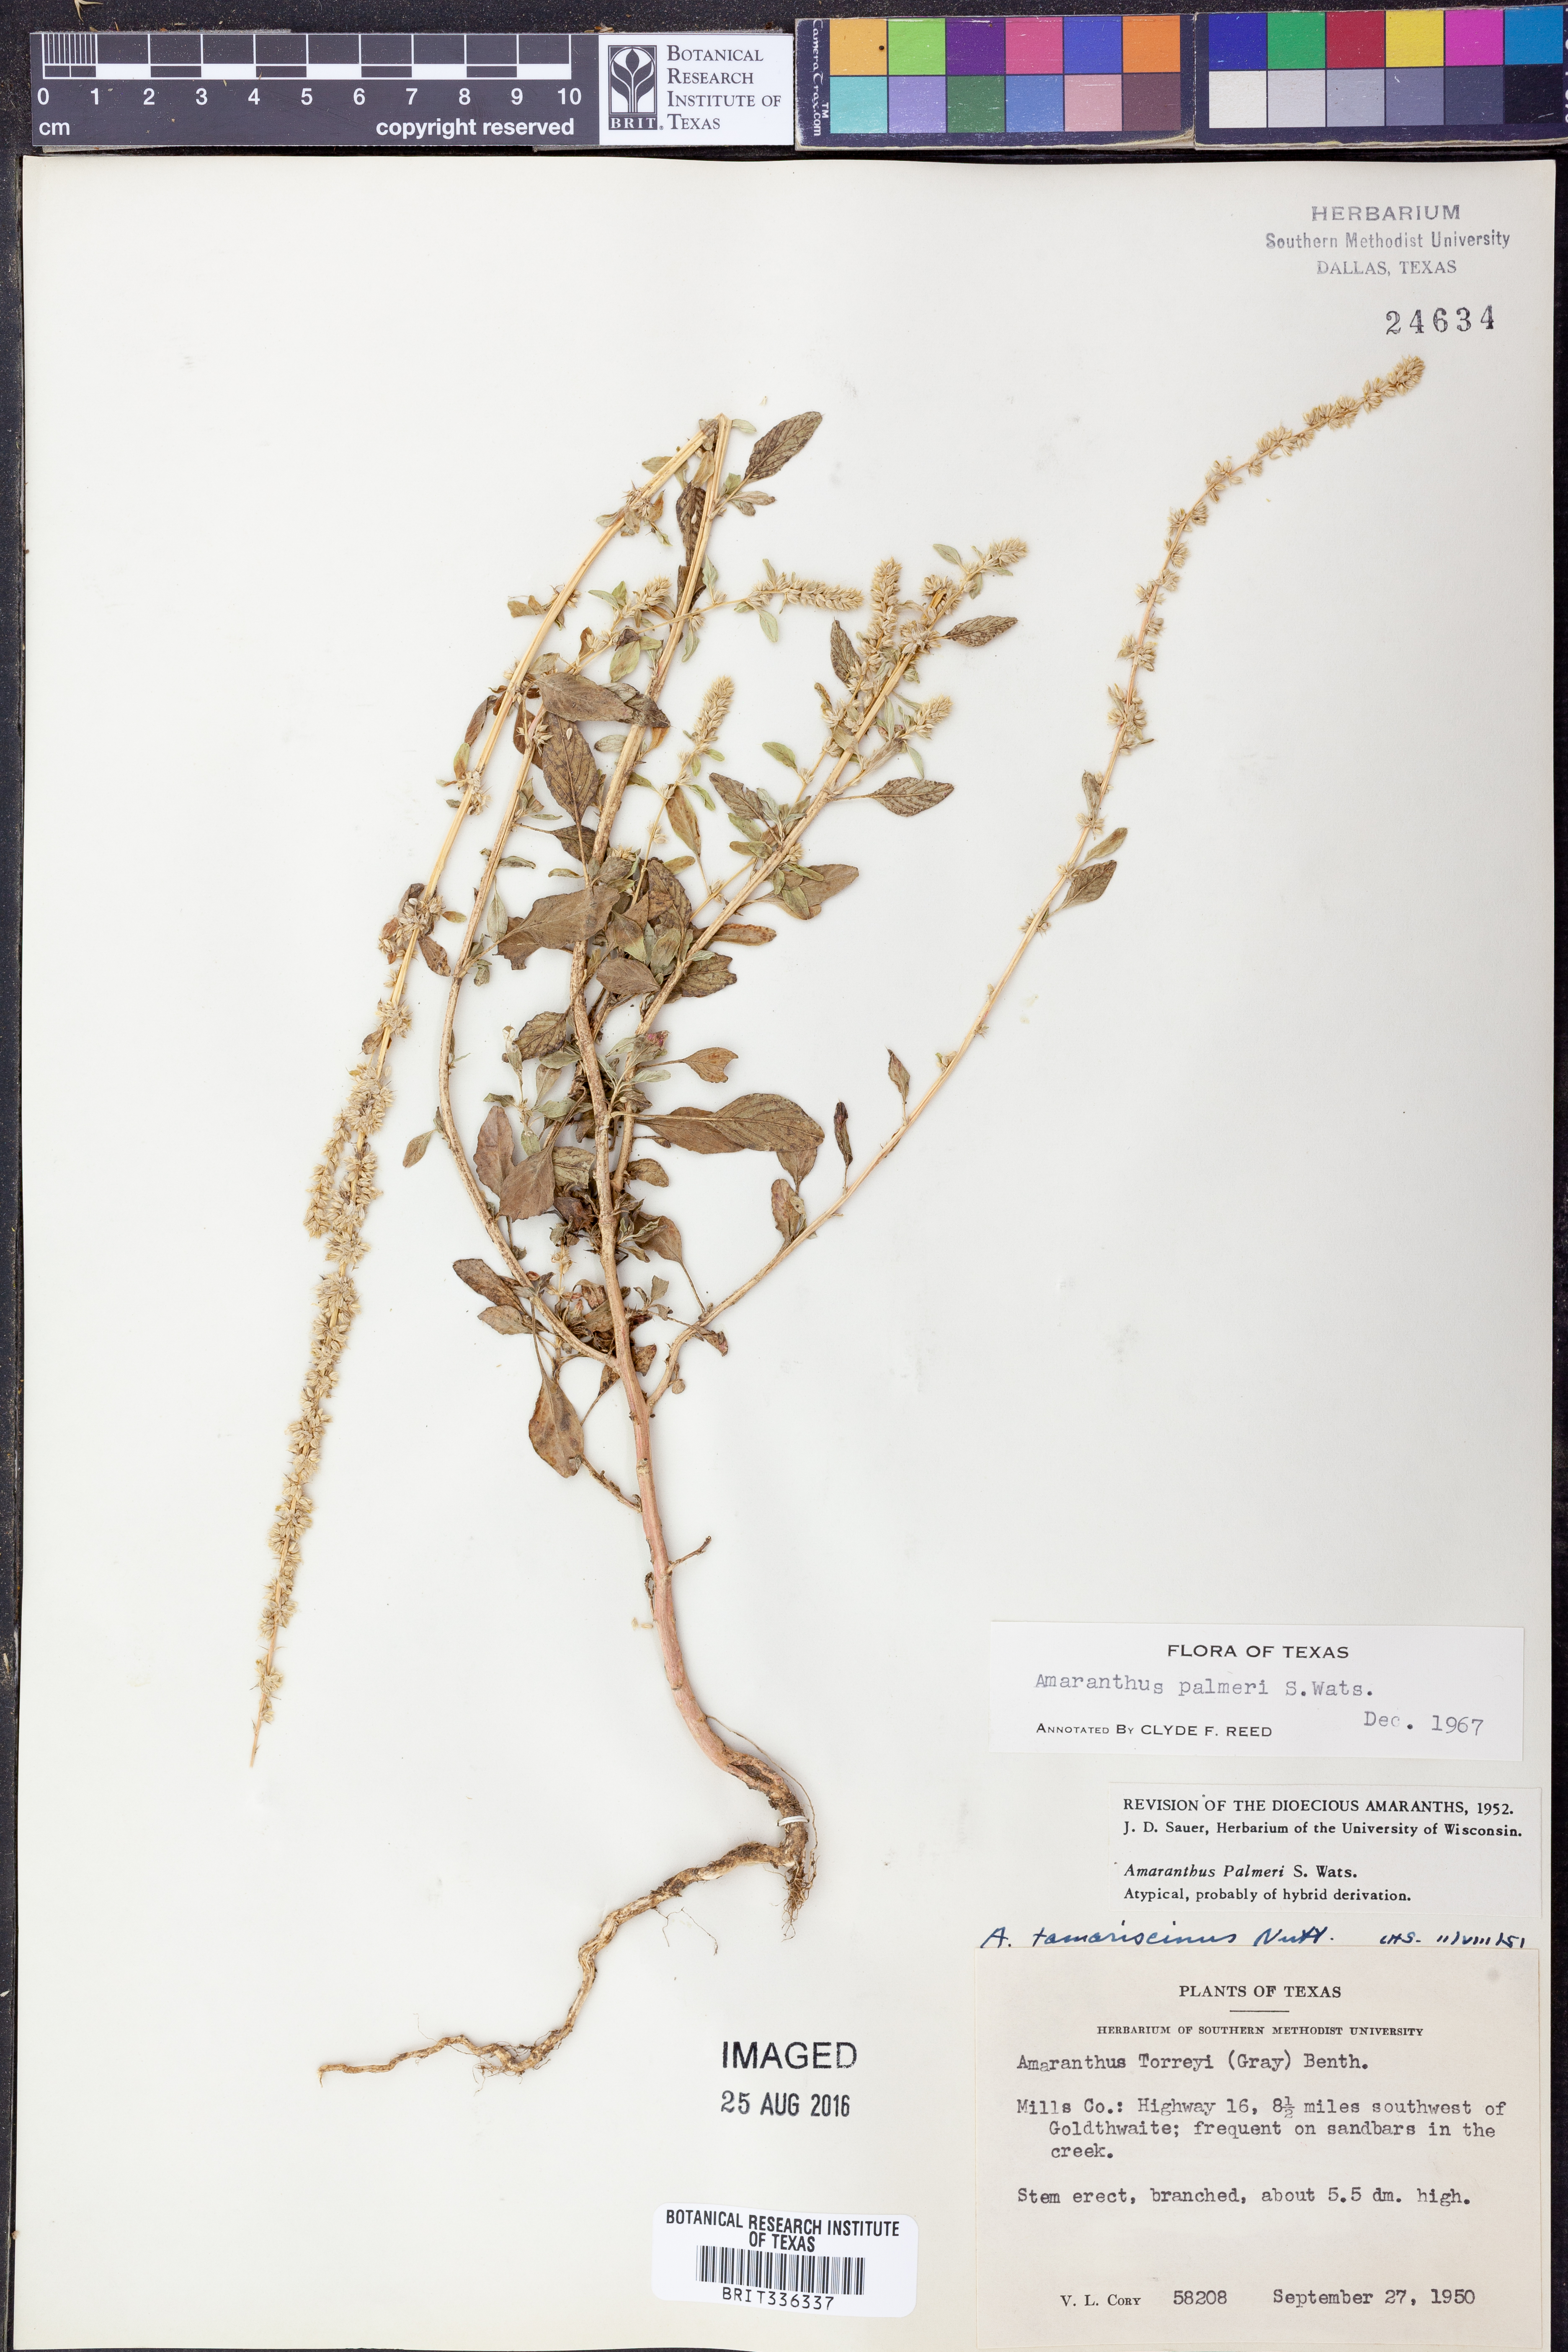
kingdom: Plantae
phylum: Tracheophyta
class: Magnoliopsida
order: Caryophyllales
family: Amaranthaceae
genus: Amaranthus
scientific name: Amaranthus palmeri
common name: Dioecious amaranth
